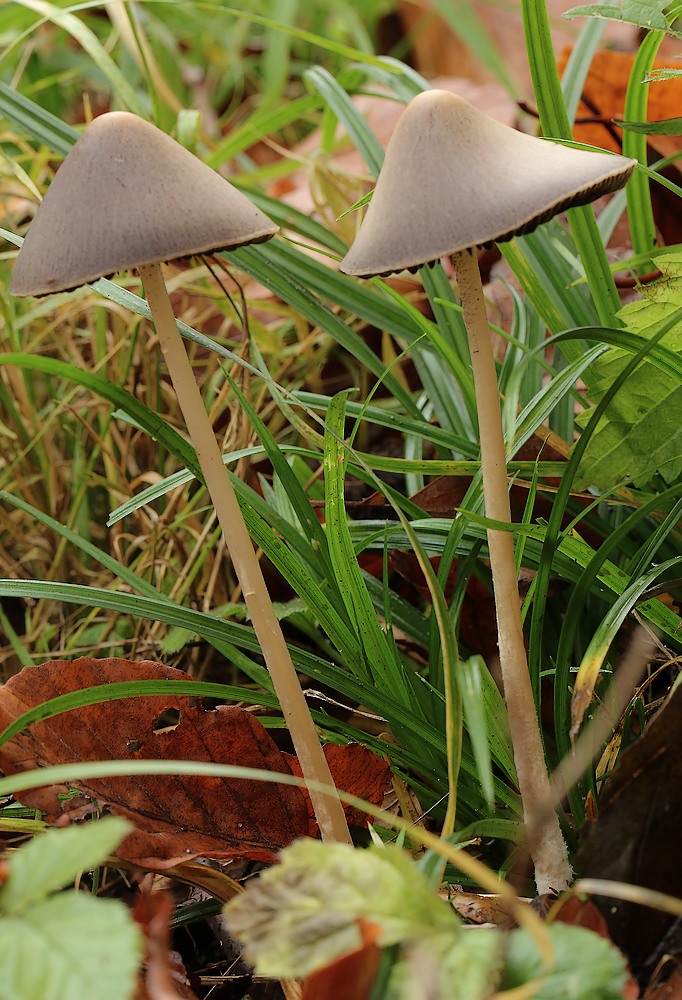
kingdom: Fungi
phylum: Basidiomycota
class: Agaricomycetes
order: Agaricales
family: Psathyrellaceae
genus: Parasola
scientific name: Parasola conopilea
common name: kegle-hjulhat
